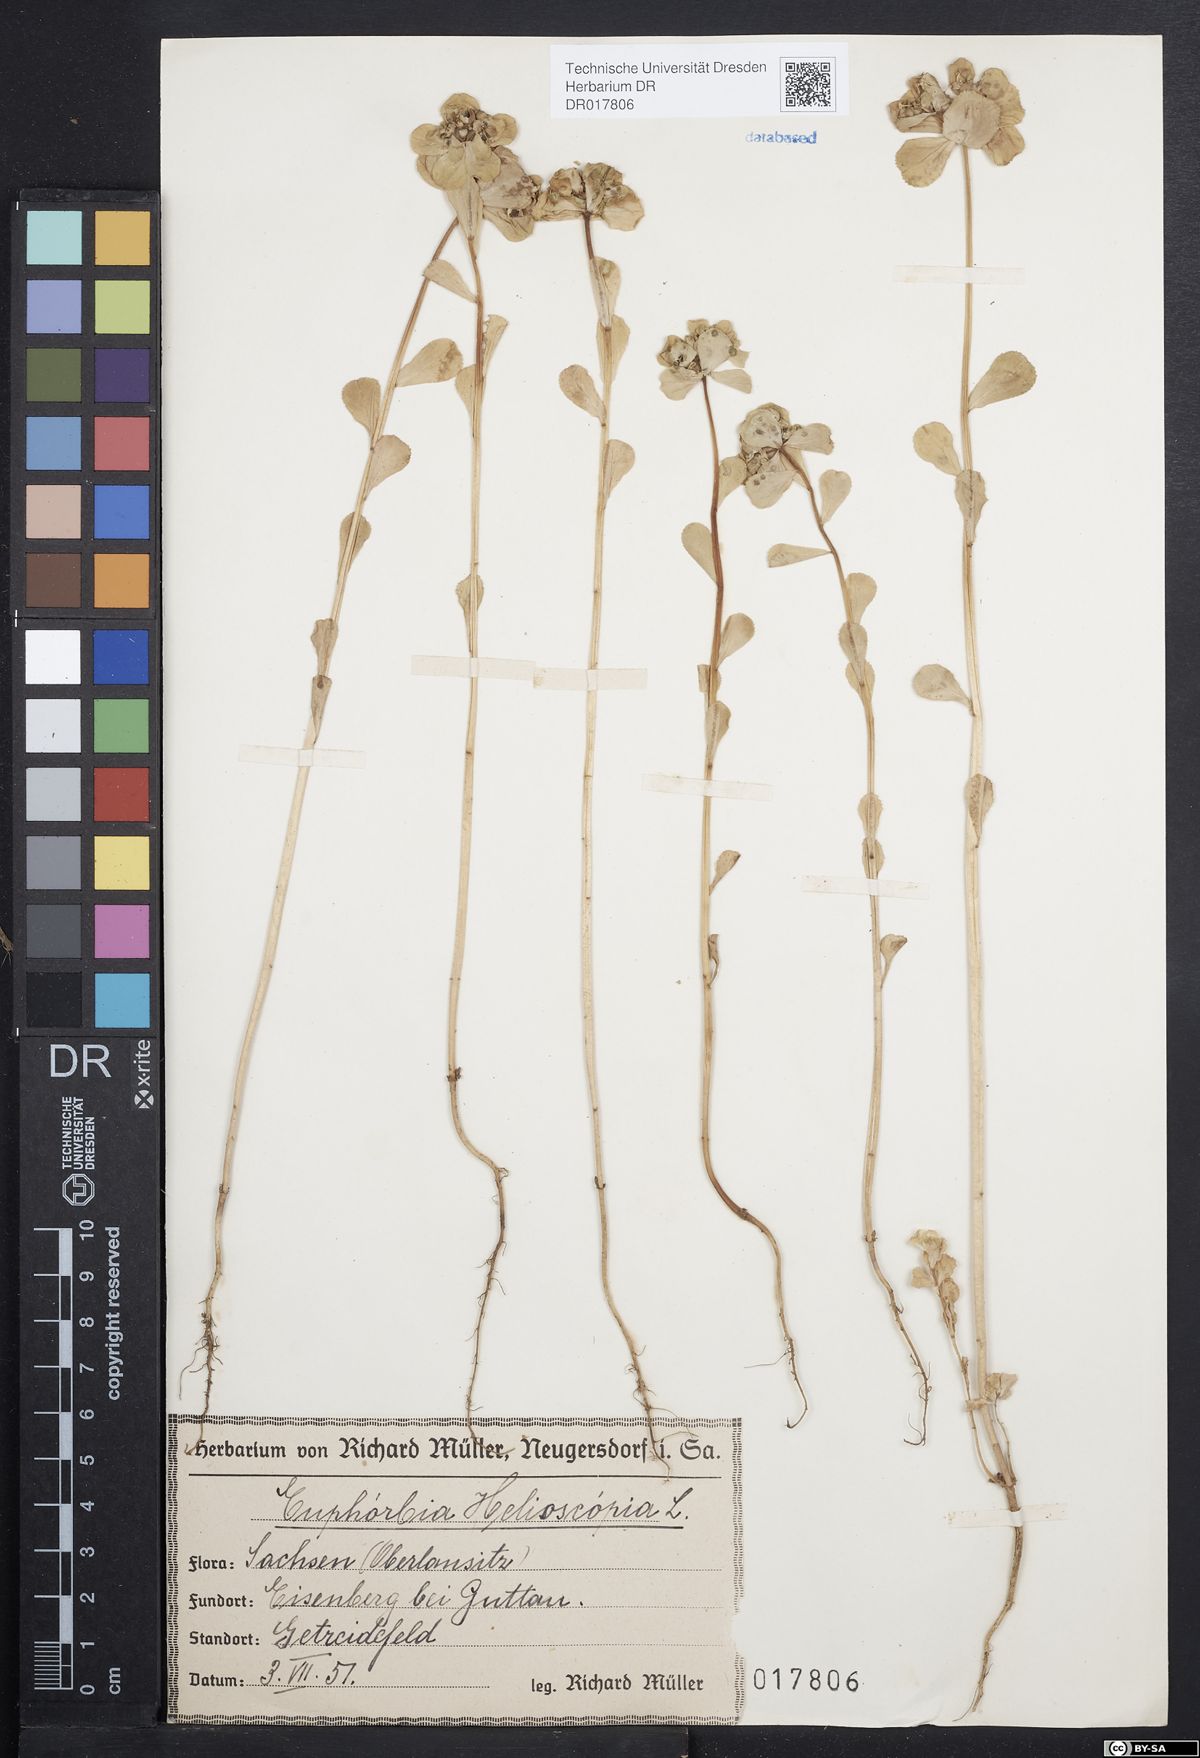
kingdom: Plantae
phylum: Tracheophyta
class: Magnoliopsida
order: Malpighiales
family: Euphorbiaceae
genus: Euphorbia
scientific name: Euphorbia helioscopia
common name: Sun spurge
